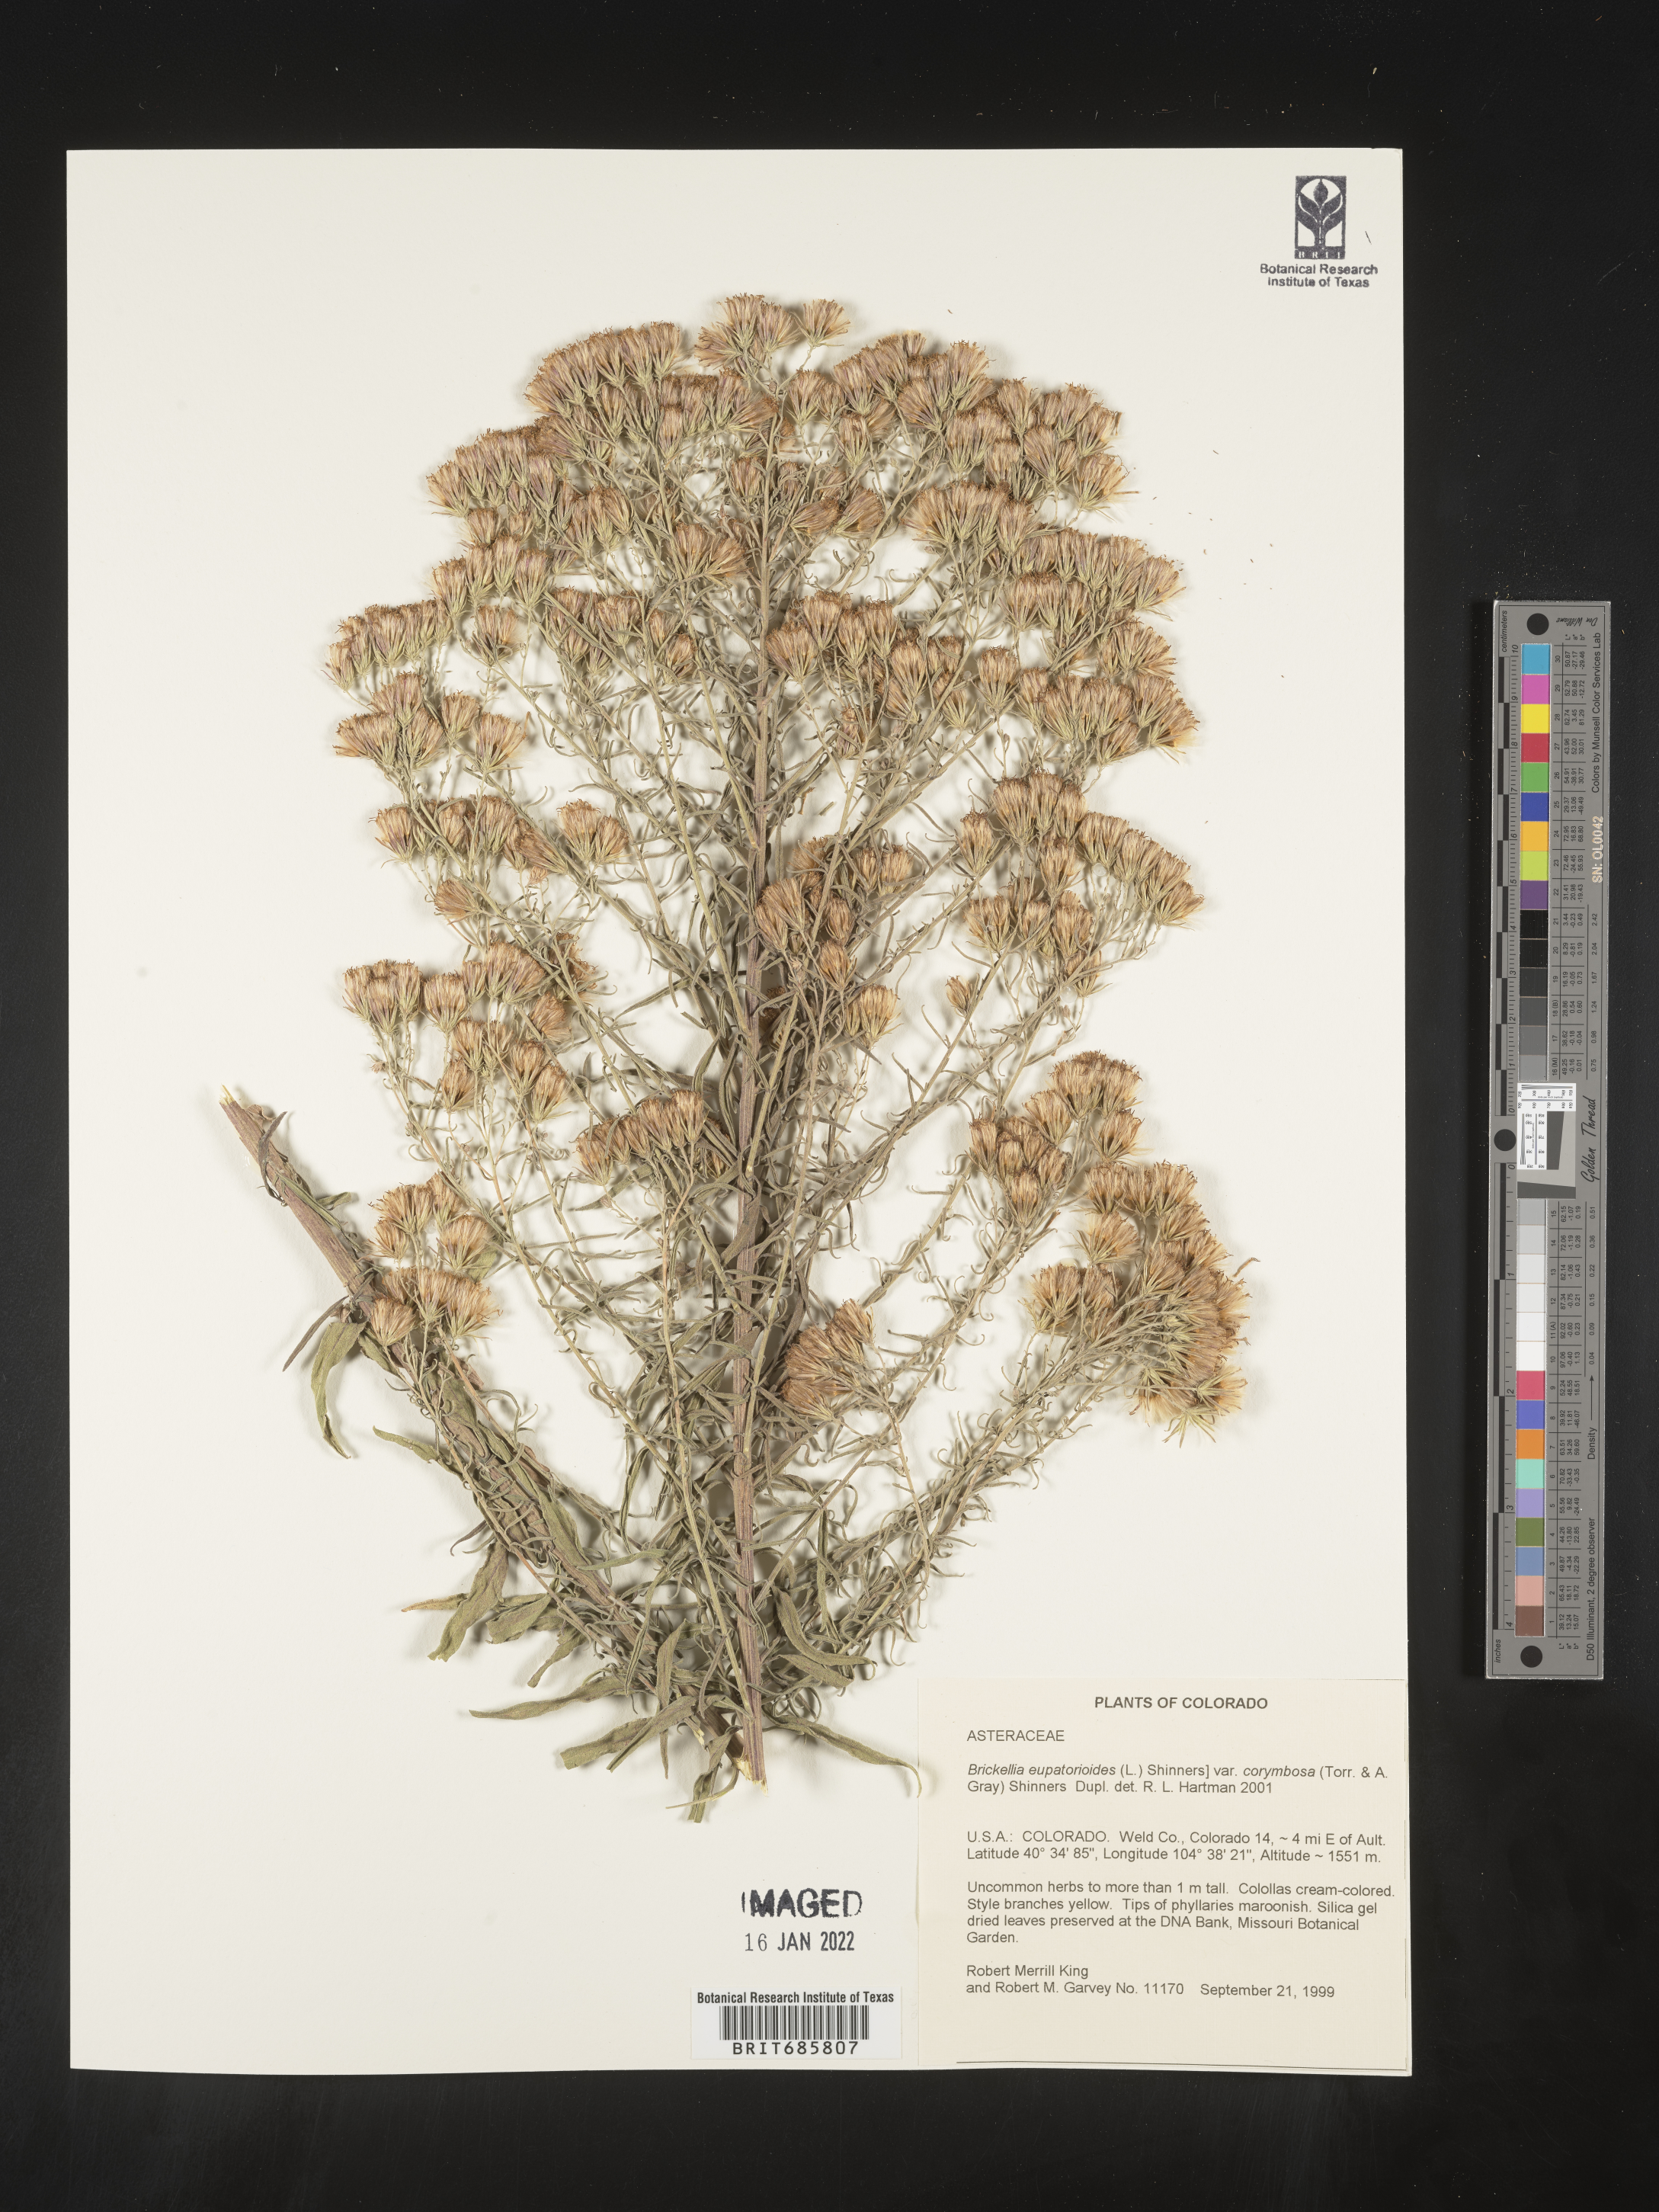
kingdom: Plantae
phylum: Tracheophyta
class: Magnoliopsida
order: Asterales
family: Asteraceae
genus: Brickellia
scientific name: Brickellia eupatorioides
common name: False boneset
